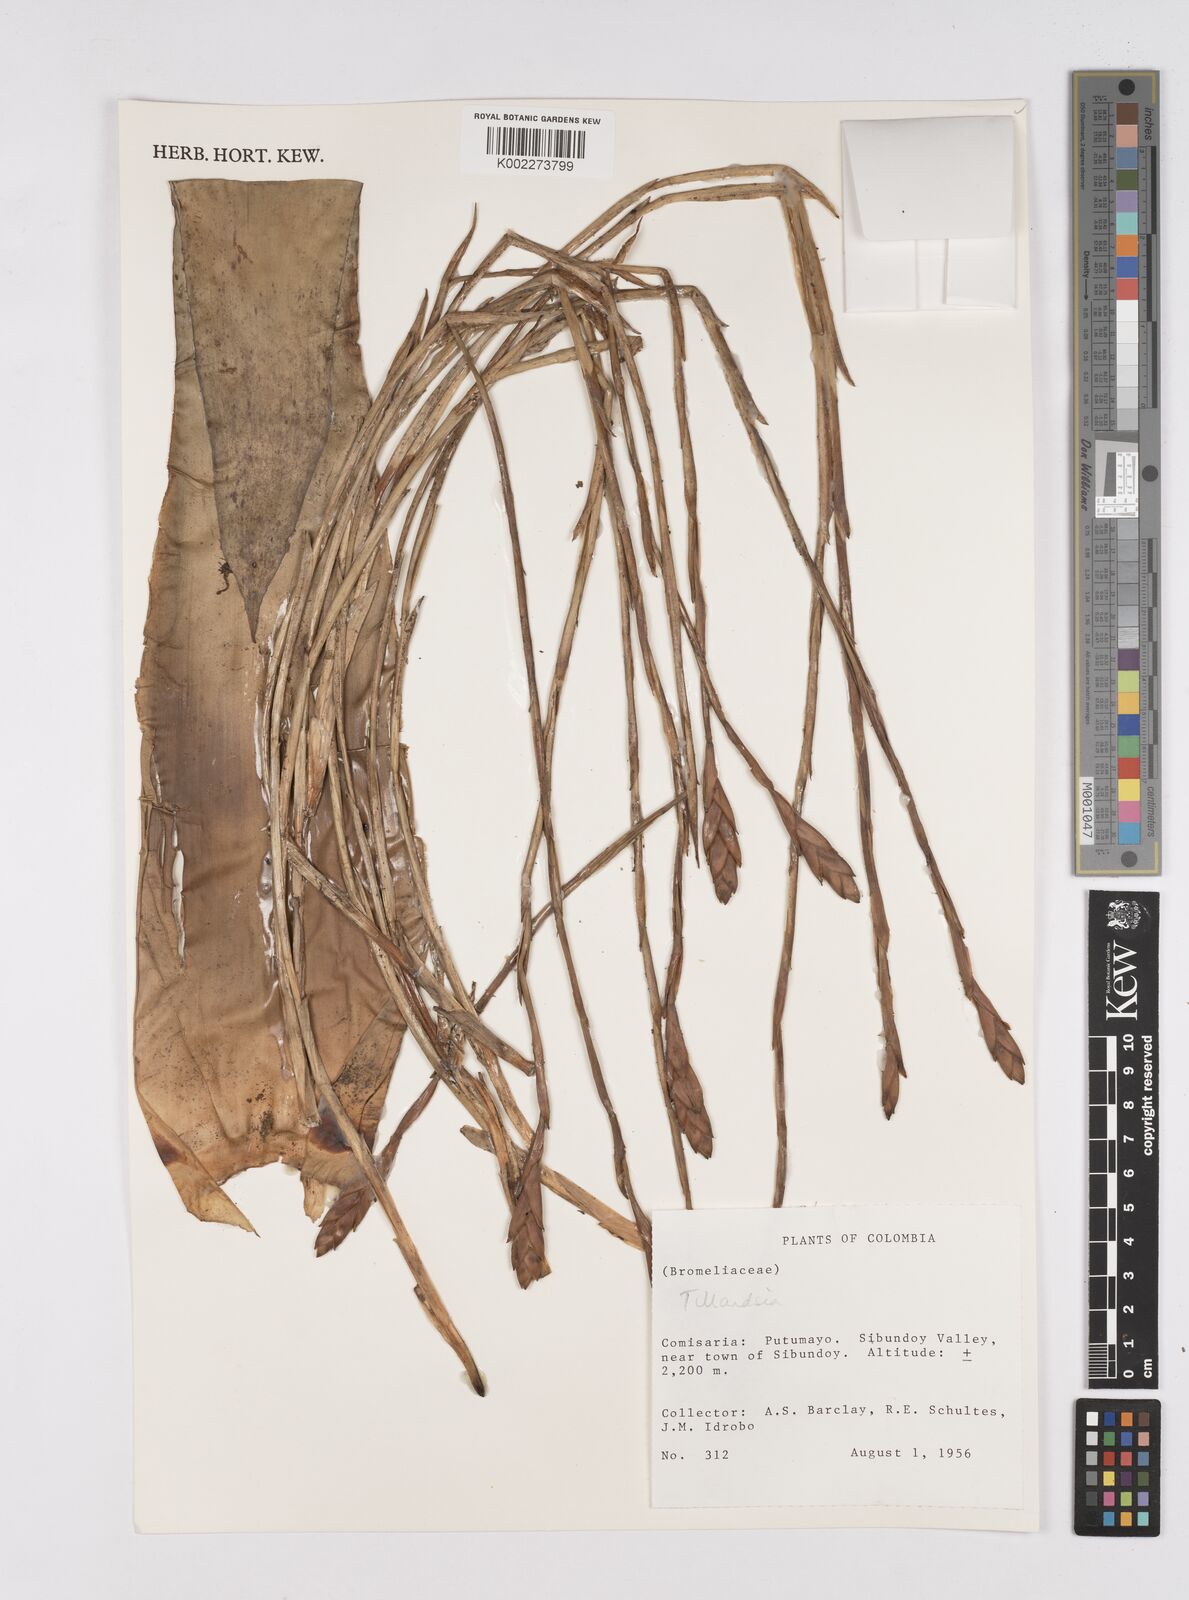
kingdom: Plantae
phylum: Tracheophyta
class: Liliopsida
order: Poales
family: Bromeliaceae
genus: Tillandsia
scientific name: Tillandsia
